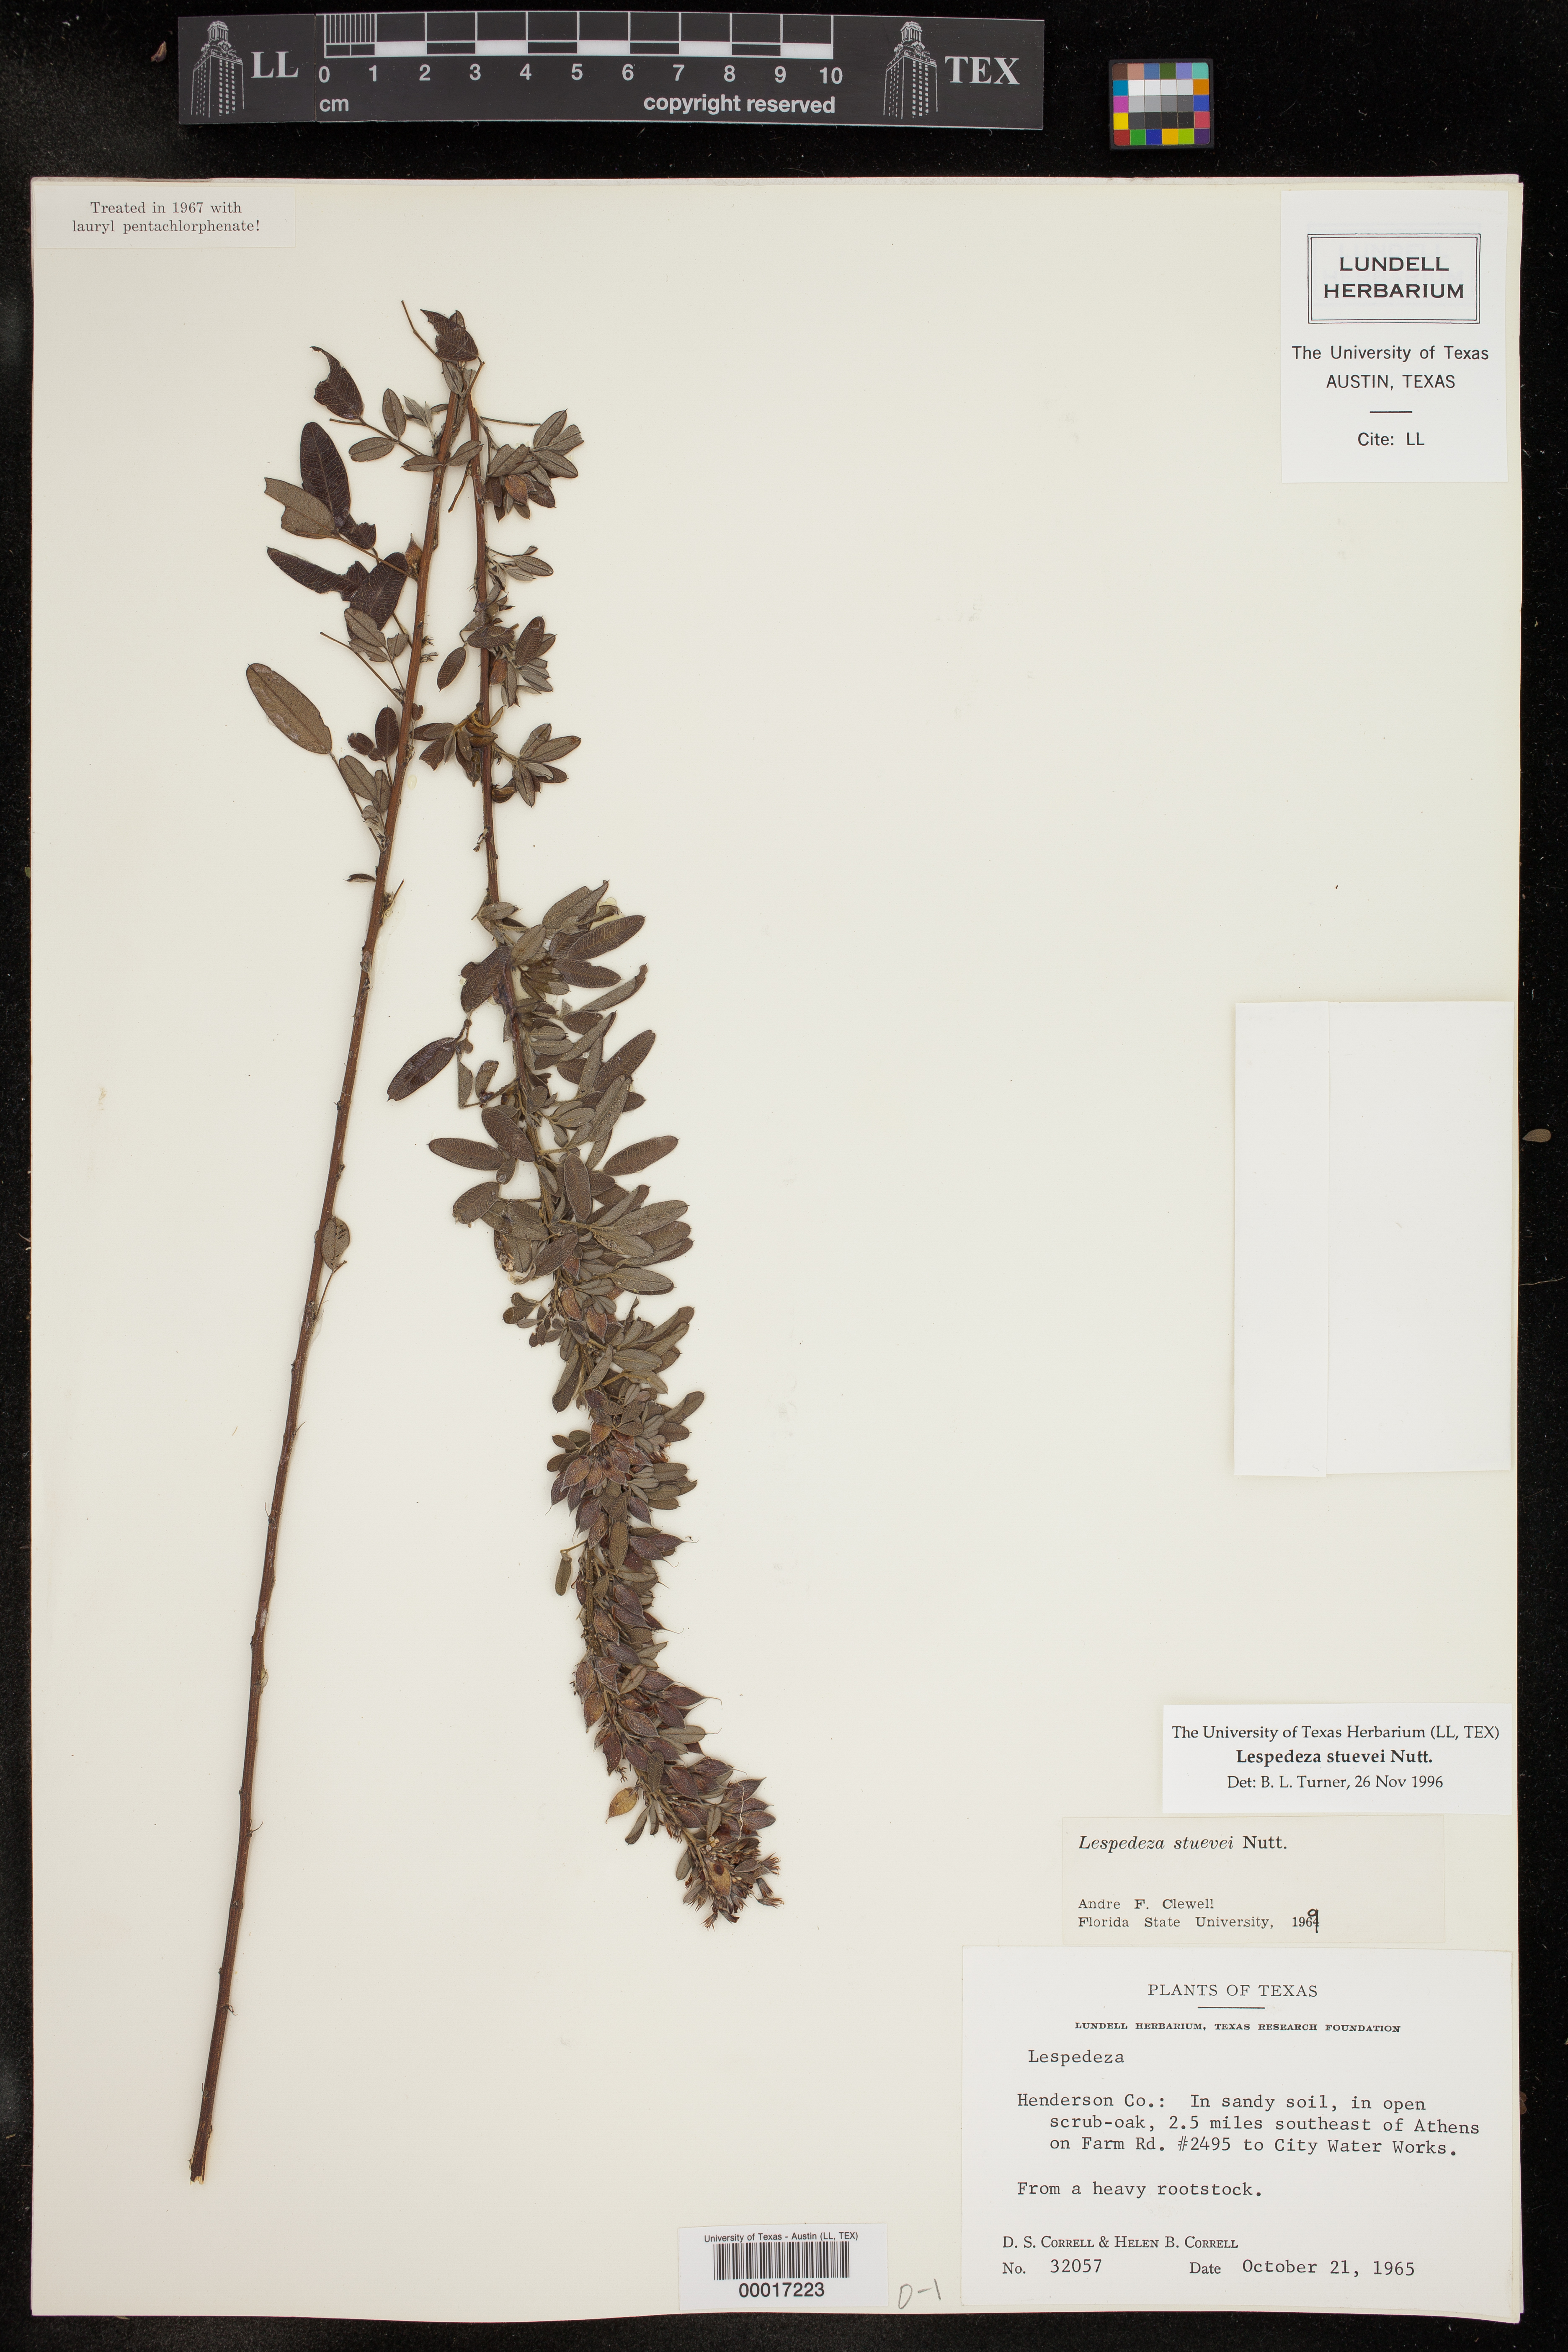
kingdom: Plantae
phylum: Tracheophyta
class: Magnoliopsida
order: Fabales
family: Fabaceae
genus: Lespedeza
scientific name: Lespedeza stuevei
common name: Tall bush-clover
